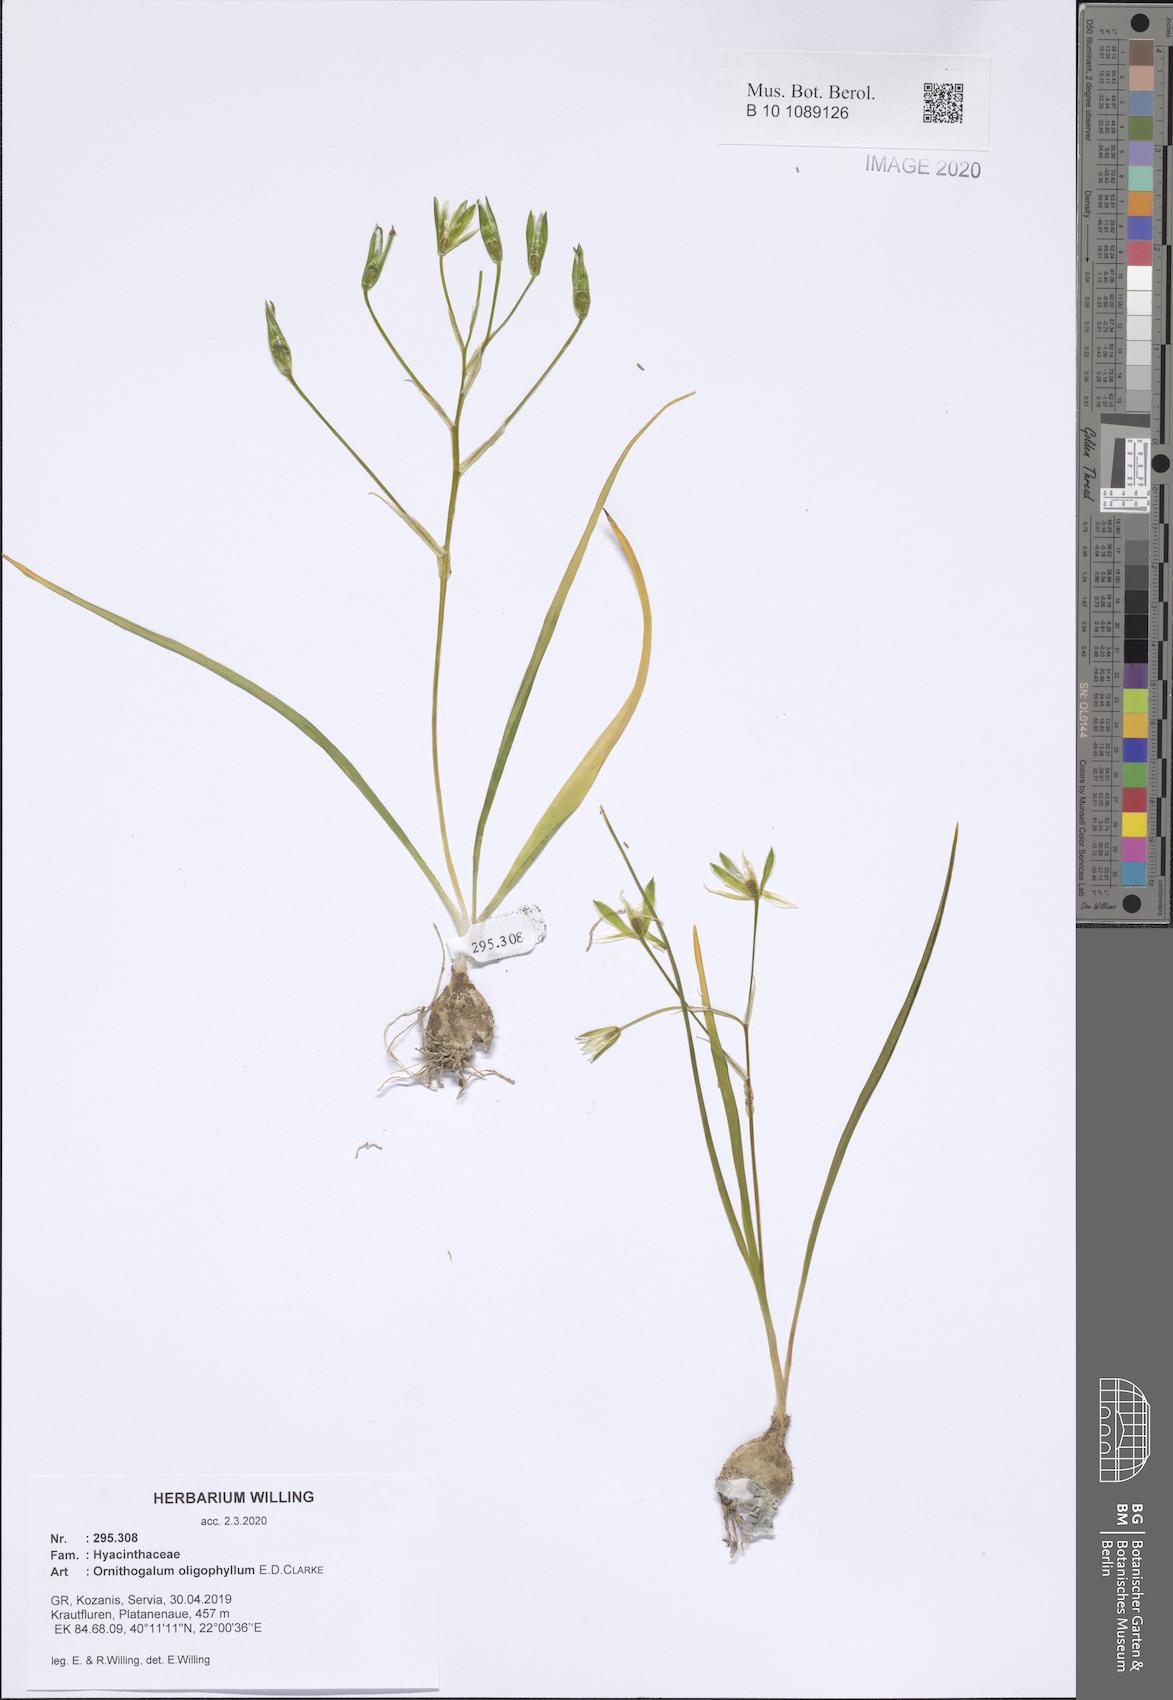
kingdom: Plantae
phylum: Tracheophyta
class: Liliopsida
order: Asparagales
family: Asparagaceae
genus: Ornithogalum
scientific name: Ornithogalum oligophyllum
